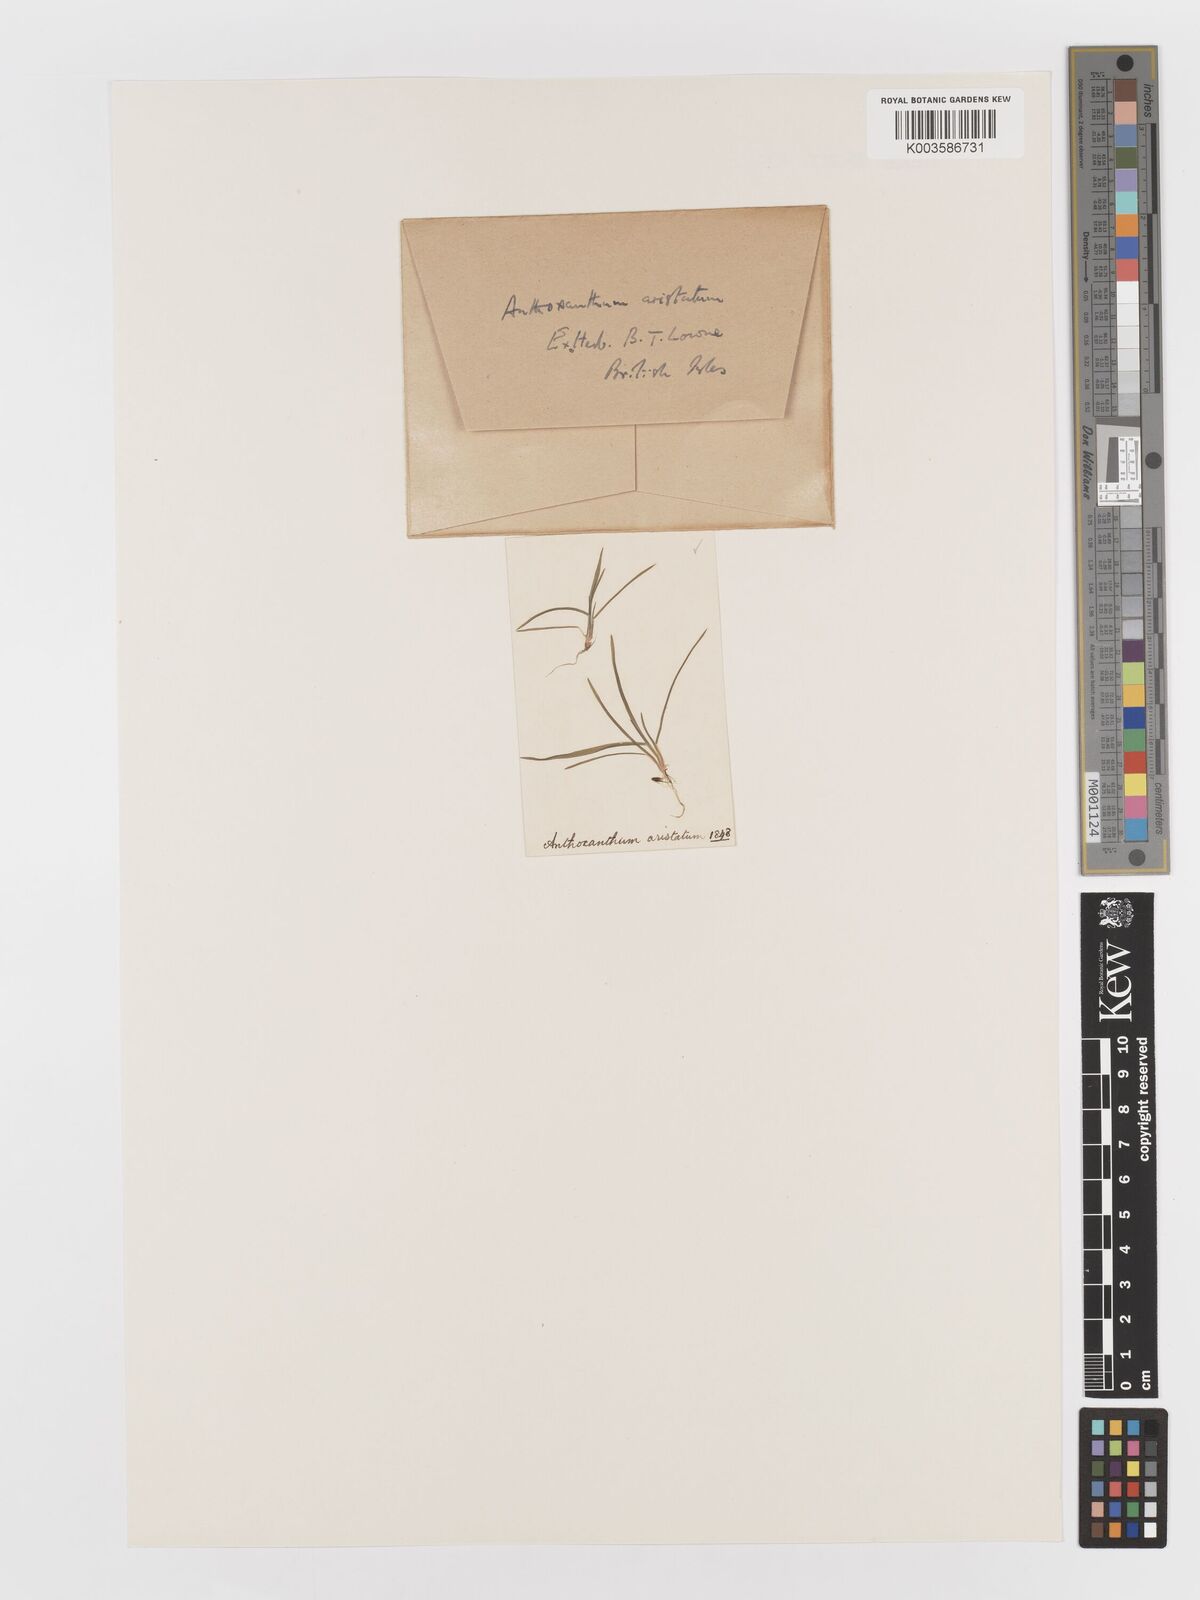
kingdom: Plantae
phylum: Tracheophyta
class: Liliopsida
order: Poales
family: Poaceae
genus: Anthoxanthum
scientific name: Anthoxanthum aristatum
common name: Annual vernal-grass
